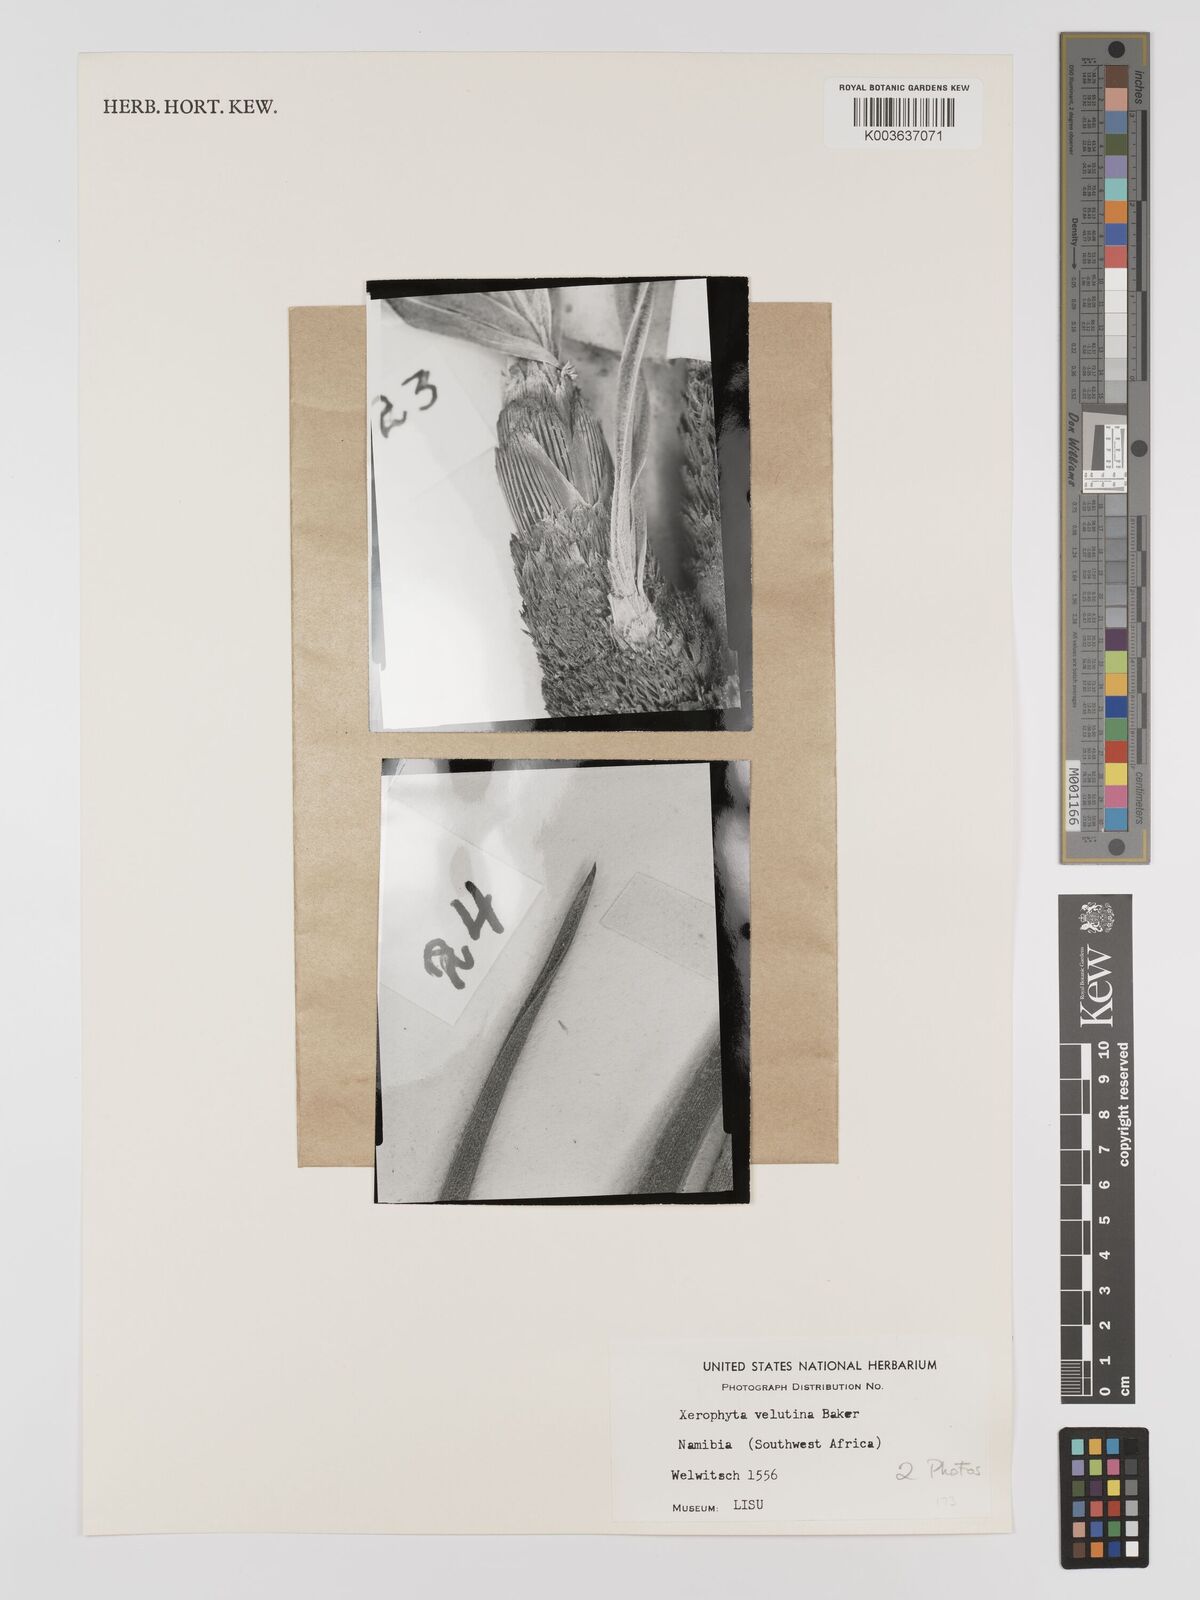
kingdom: Plantae
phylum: Tracheophyta
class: Liliopsida
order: Pandanales
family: Velloziaceae
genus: Xerophyta
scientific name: Xerophyta velutina
